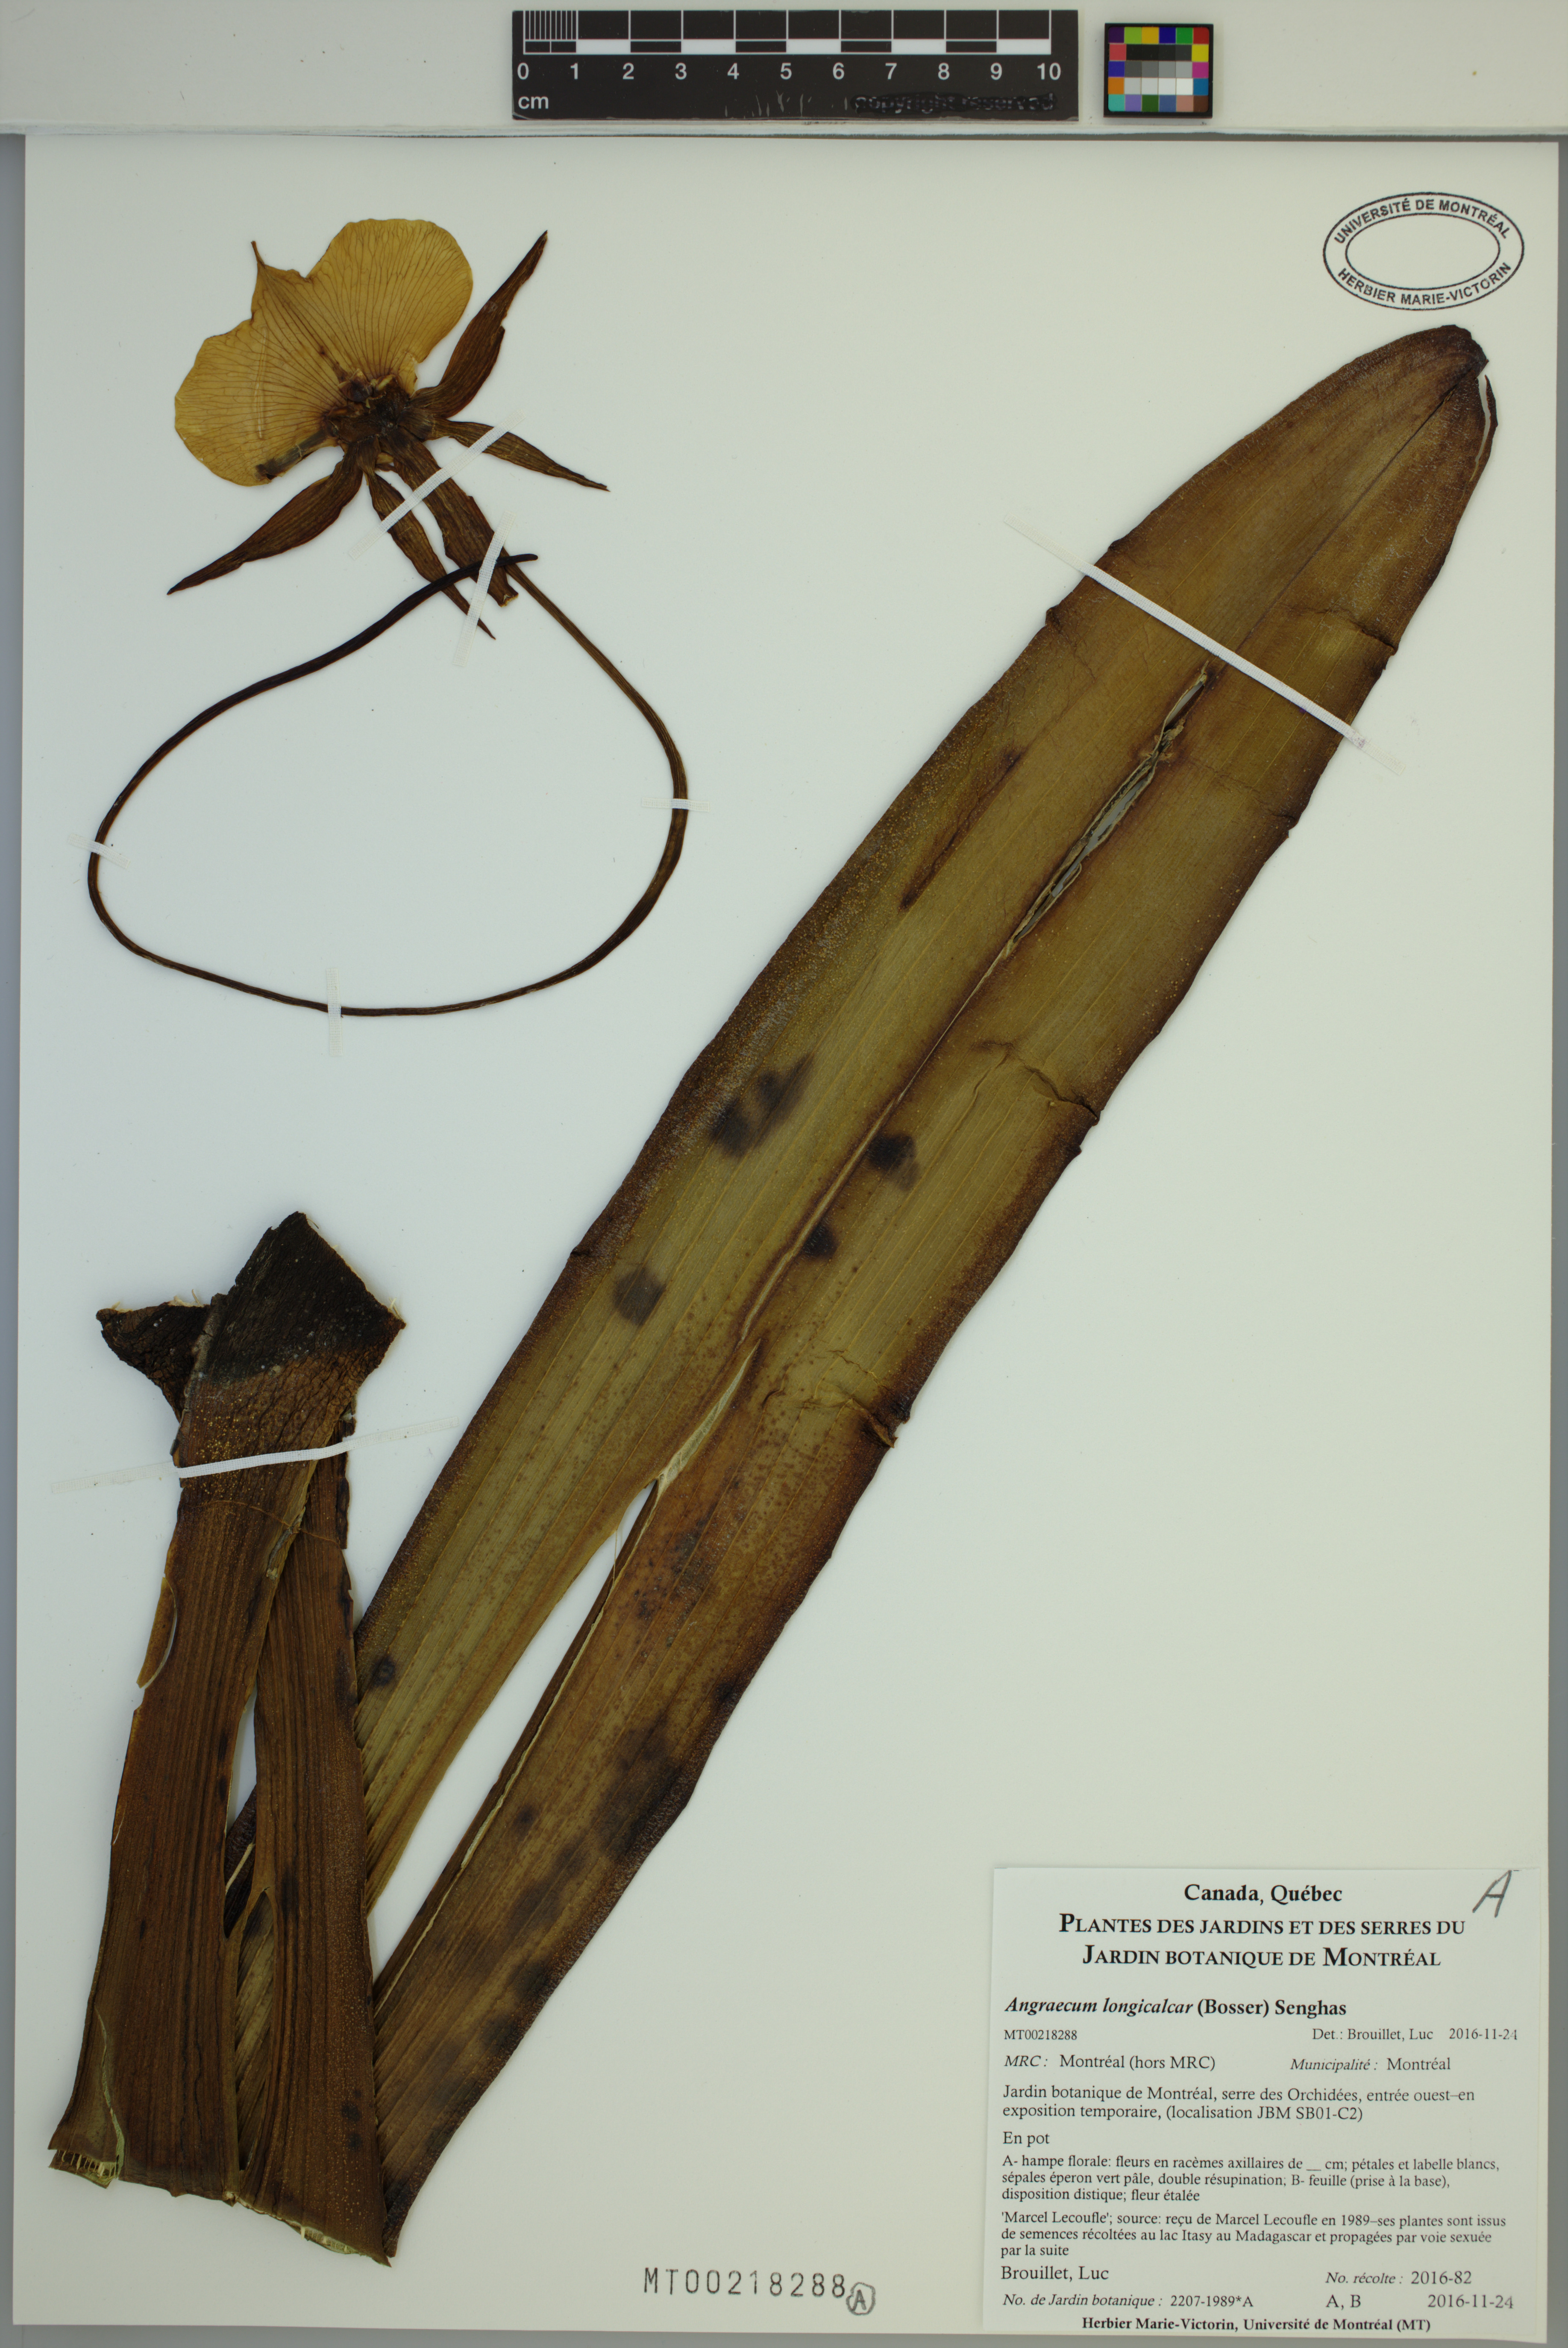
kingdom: Plantae
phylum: Tracheophyta
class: Liliopsida
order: Asparagales
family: Orchidaceae
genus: Angraecum
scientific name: Angraecum longicalcar
